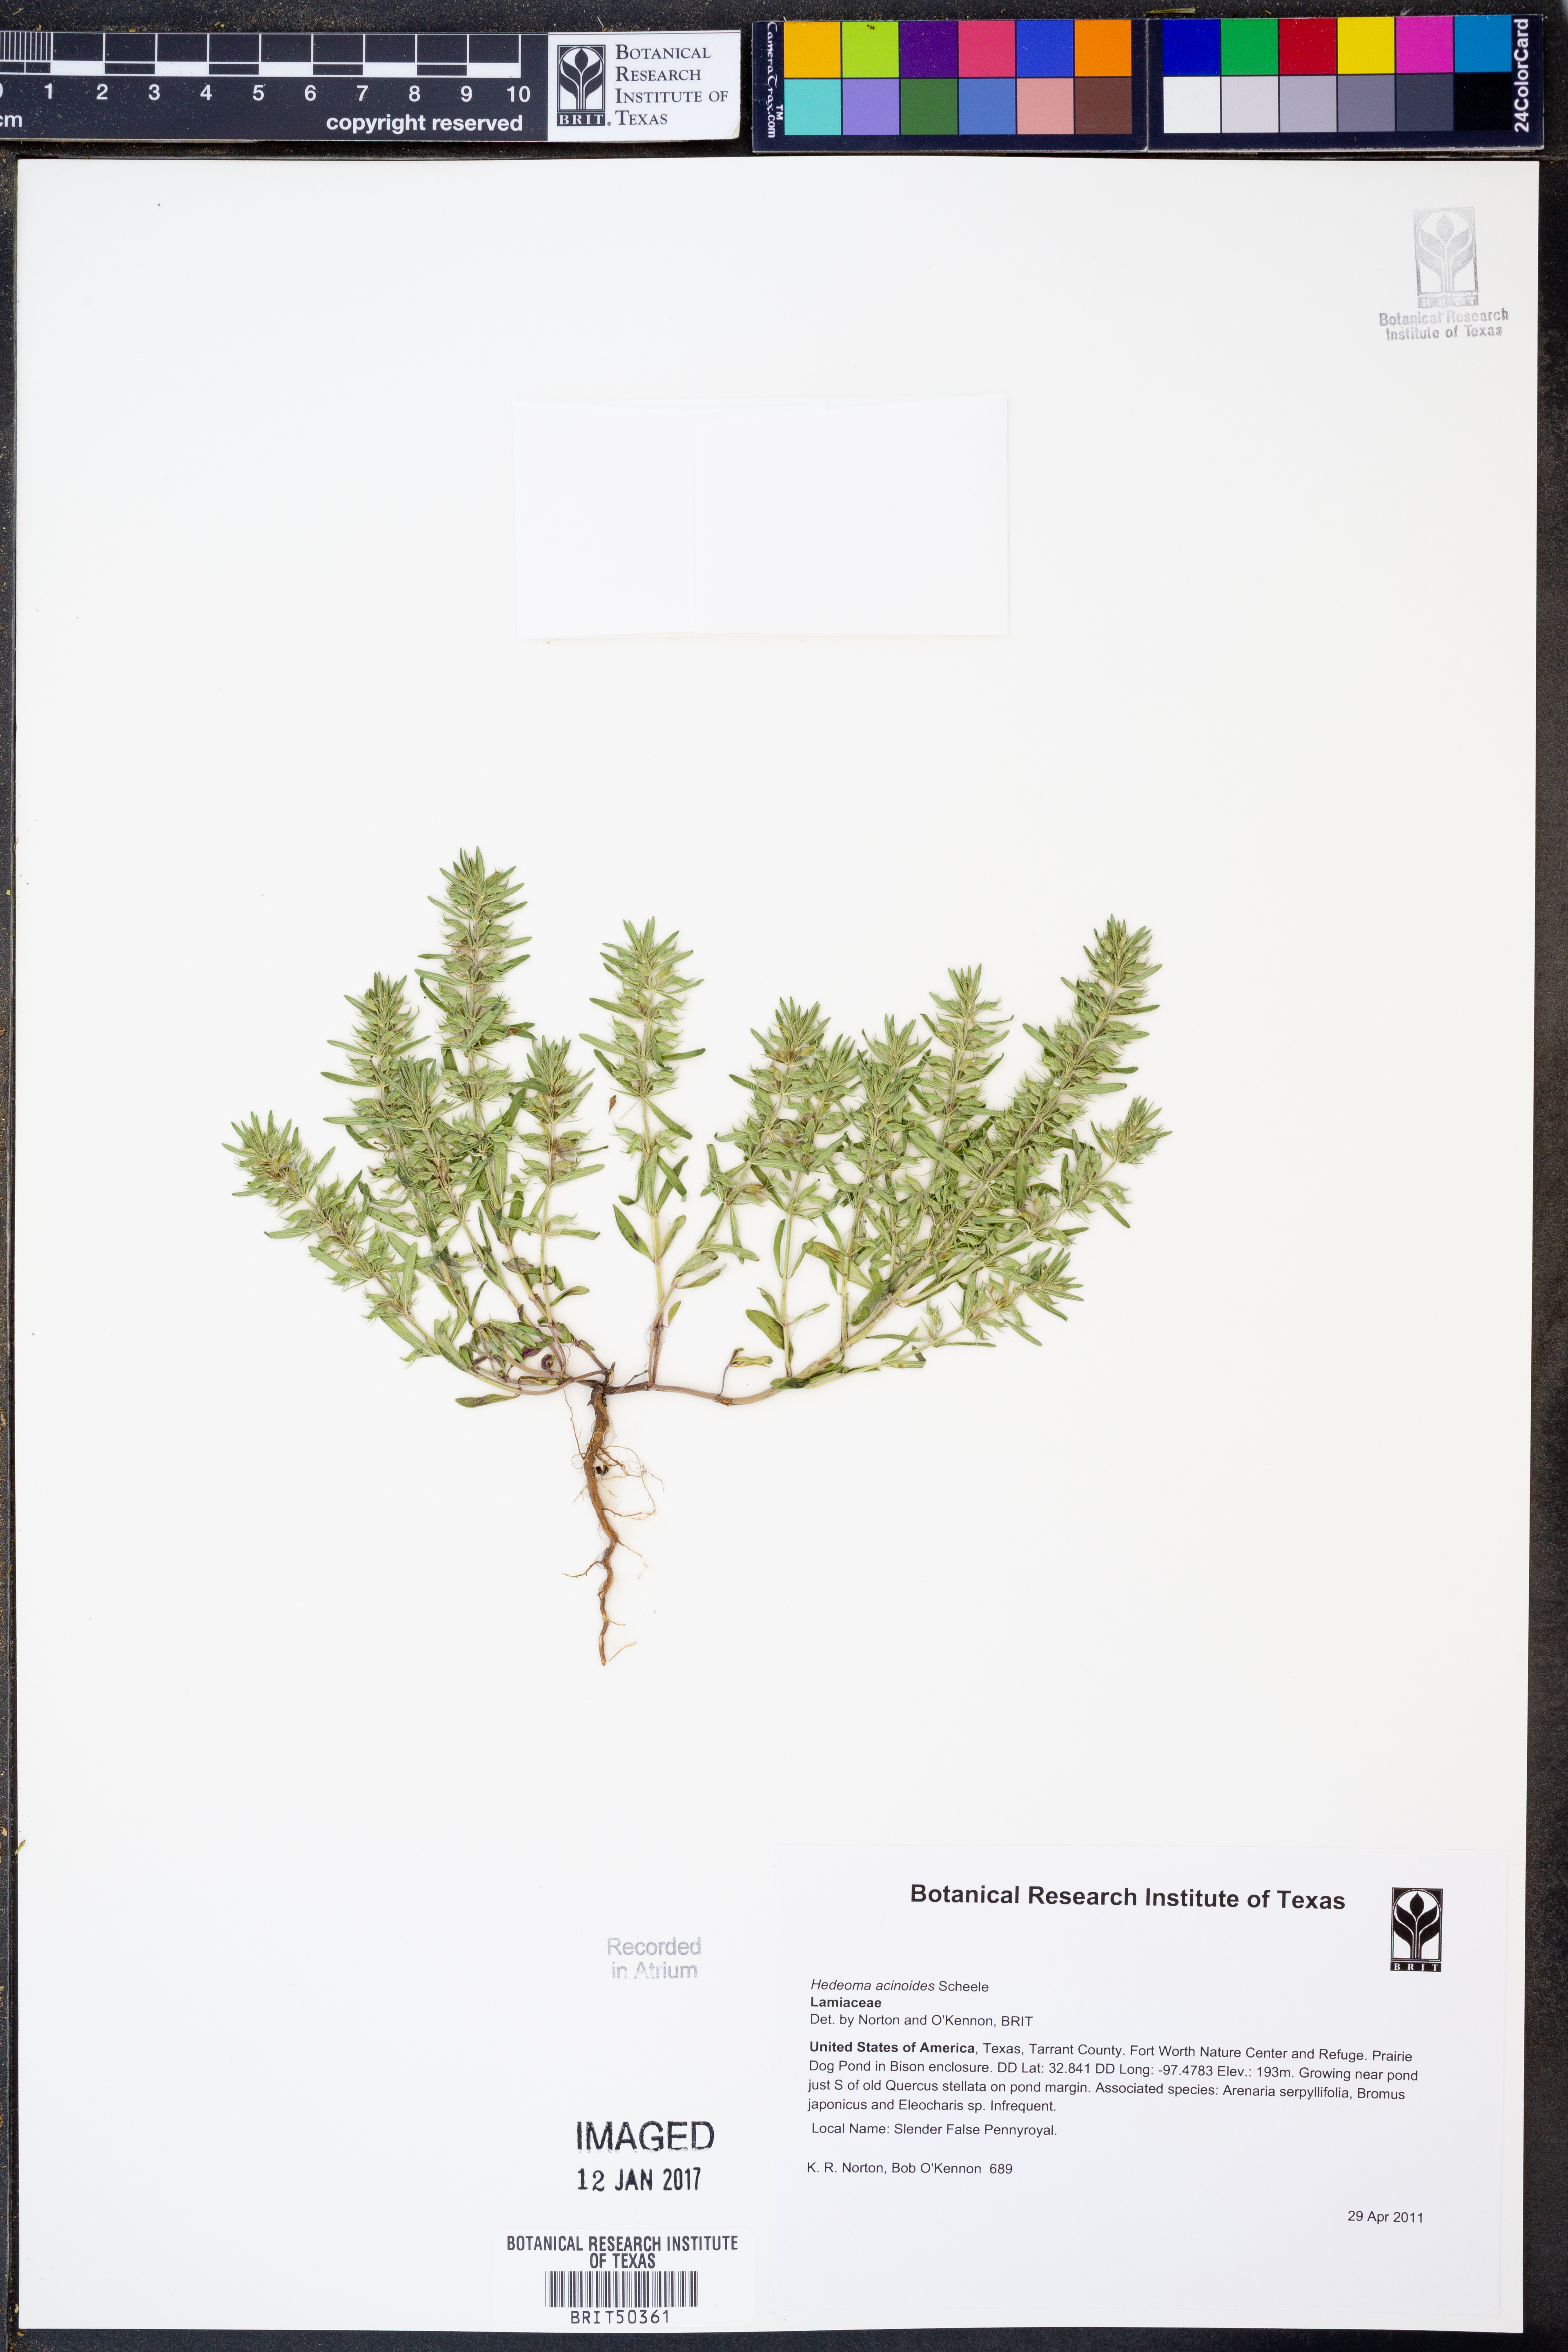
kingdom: Plantae
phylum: Tracheophyta
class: Magnoliopsida
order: Lamiales
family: Lamiaceae
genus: Hedeoma
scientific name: Hedeoma acinoides
